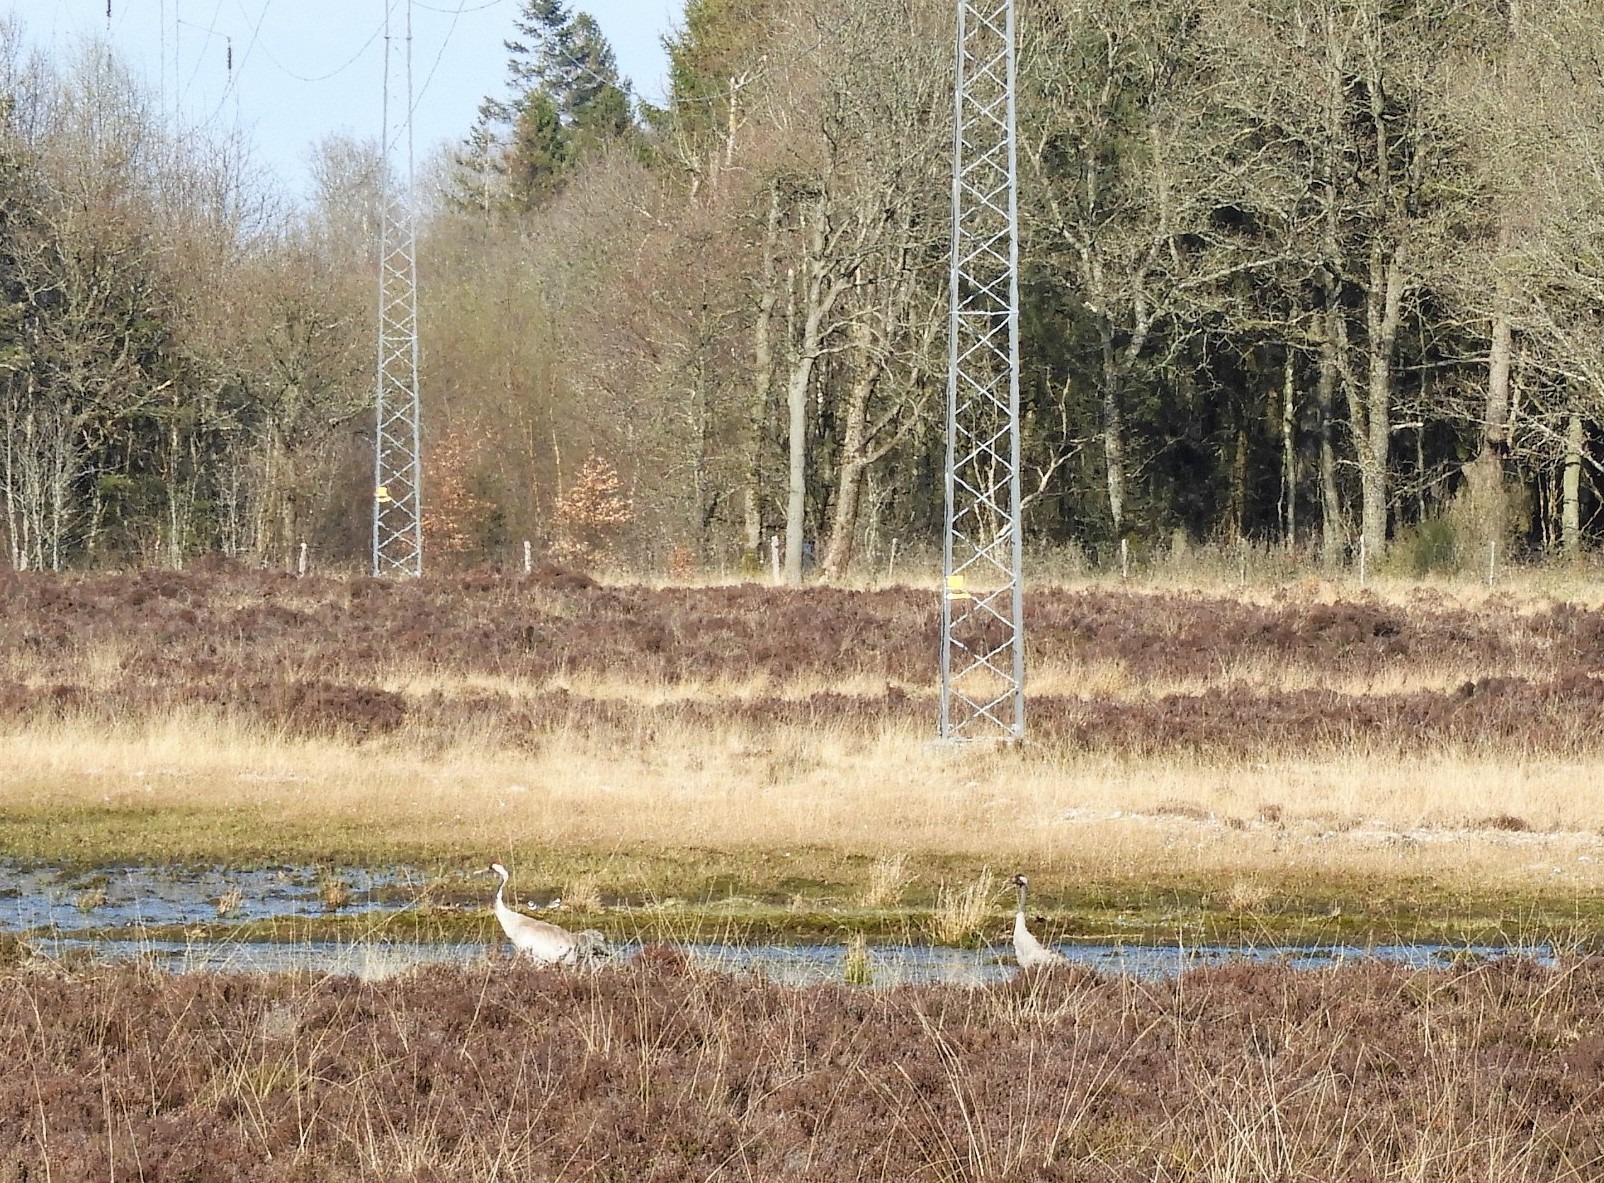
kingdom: Animalia
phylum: Chordata
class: Aves
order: Gruiformes
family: Gruidae
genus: Grus
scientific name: Grus grus
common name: Trane
